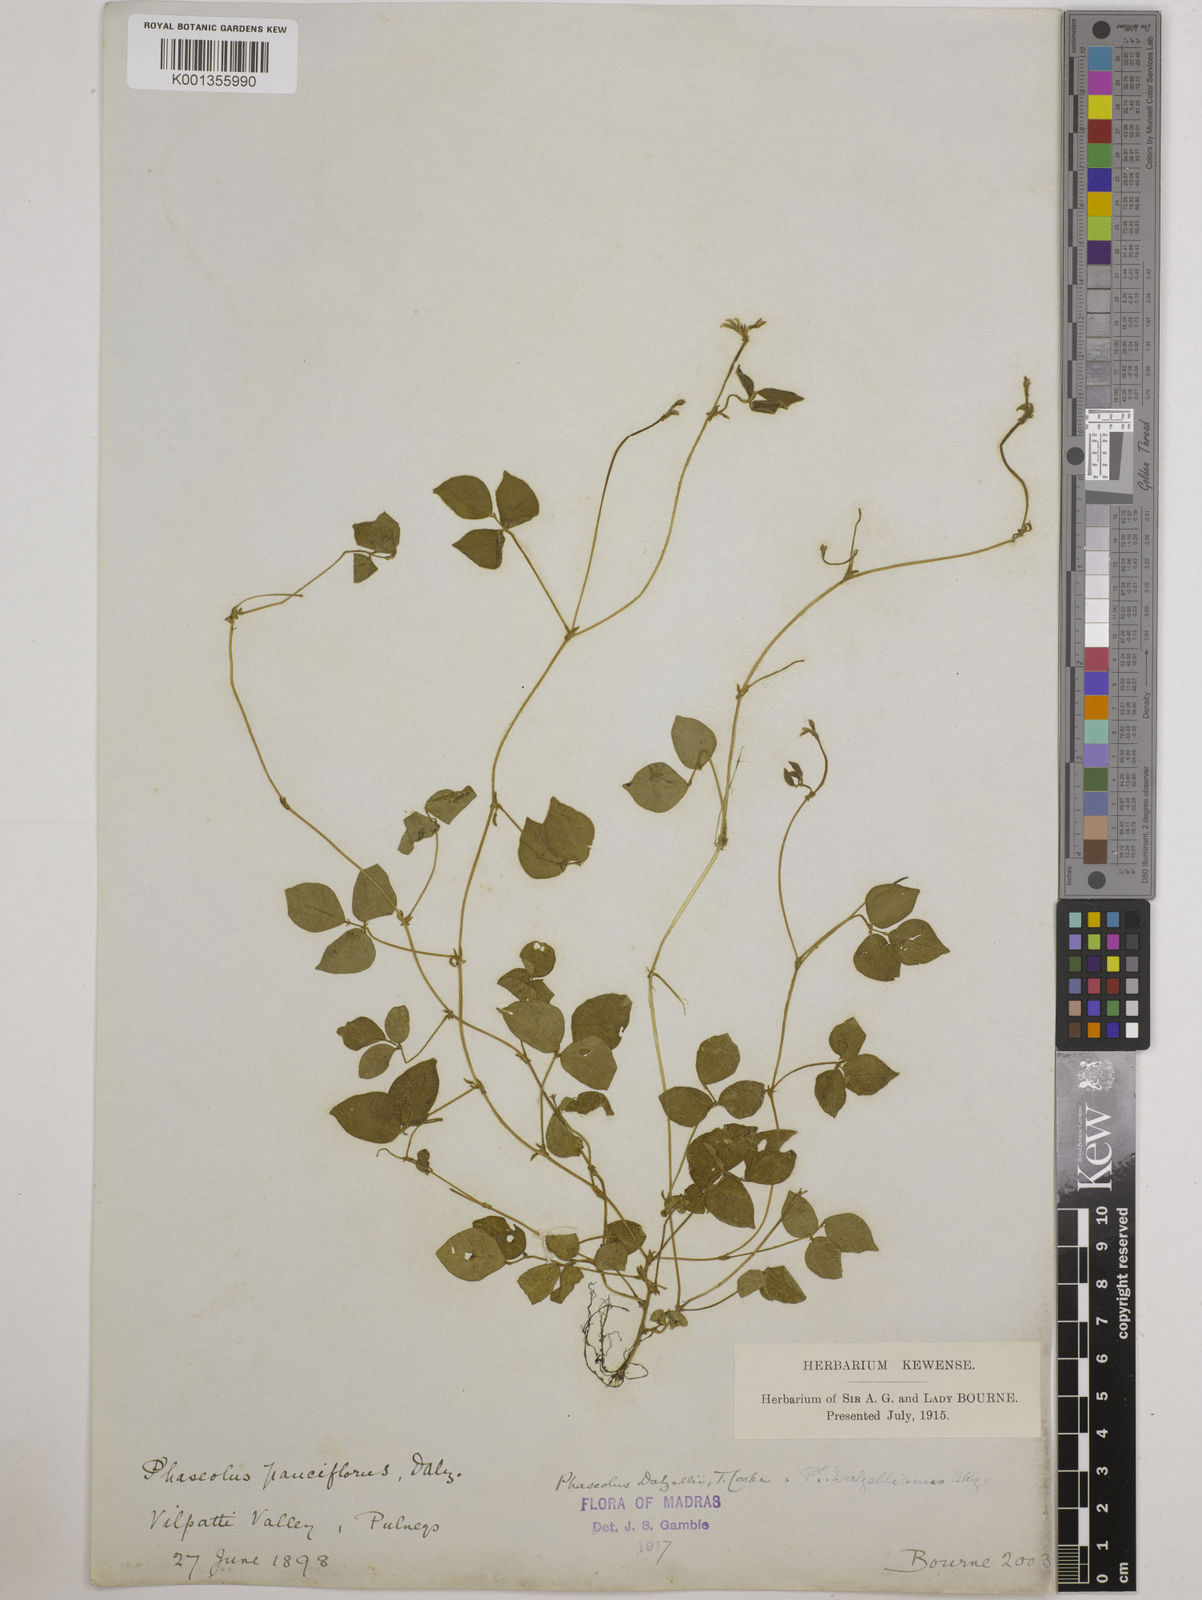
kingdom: Plantae
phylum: Tracheophyta
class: Magnoliopsida
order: Fabales
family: Fabaceae
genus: Vigna
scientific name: Vigna dalzelliana
